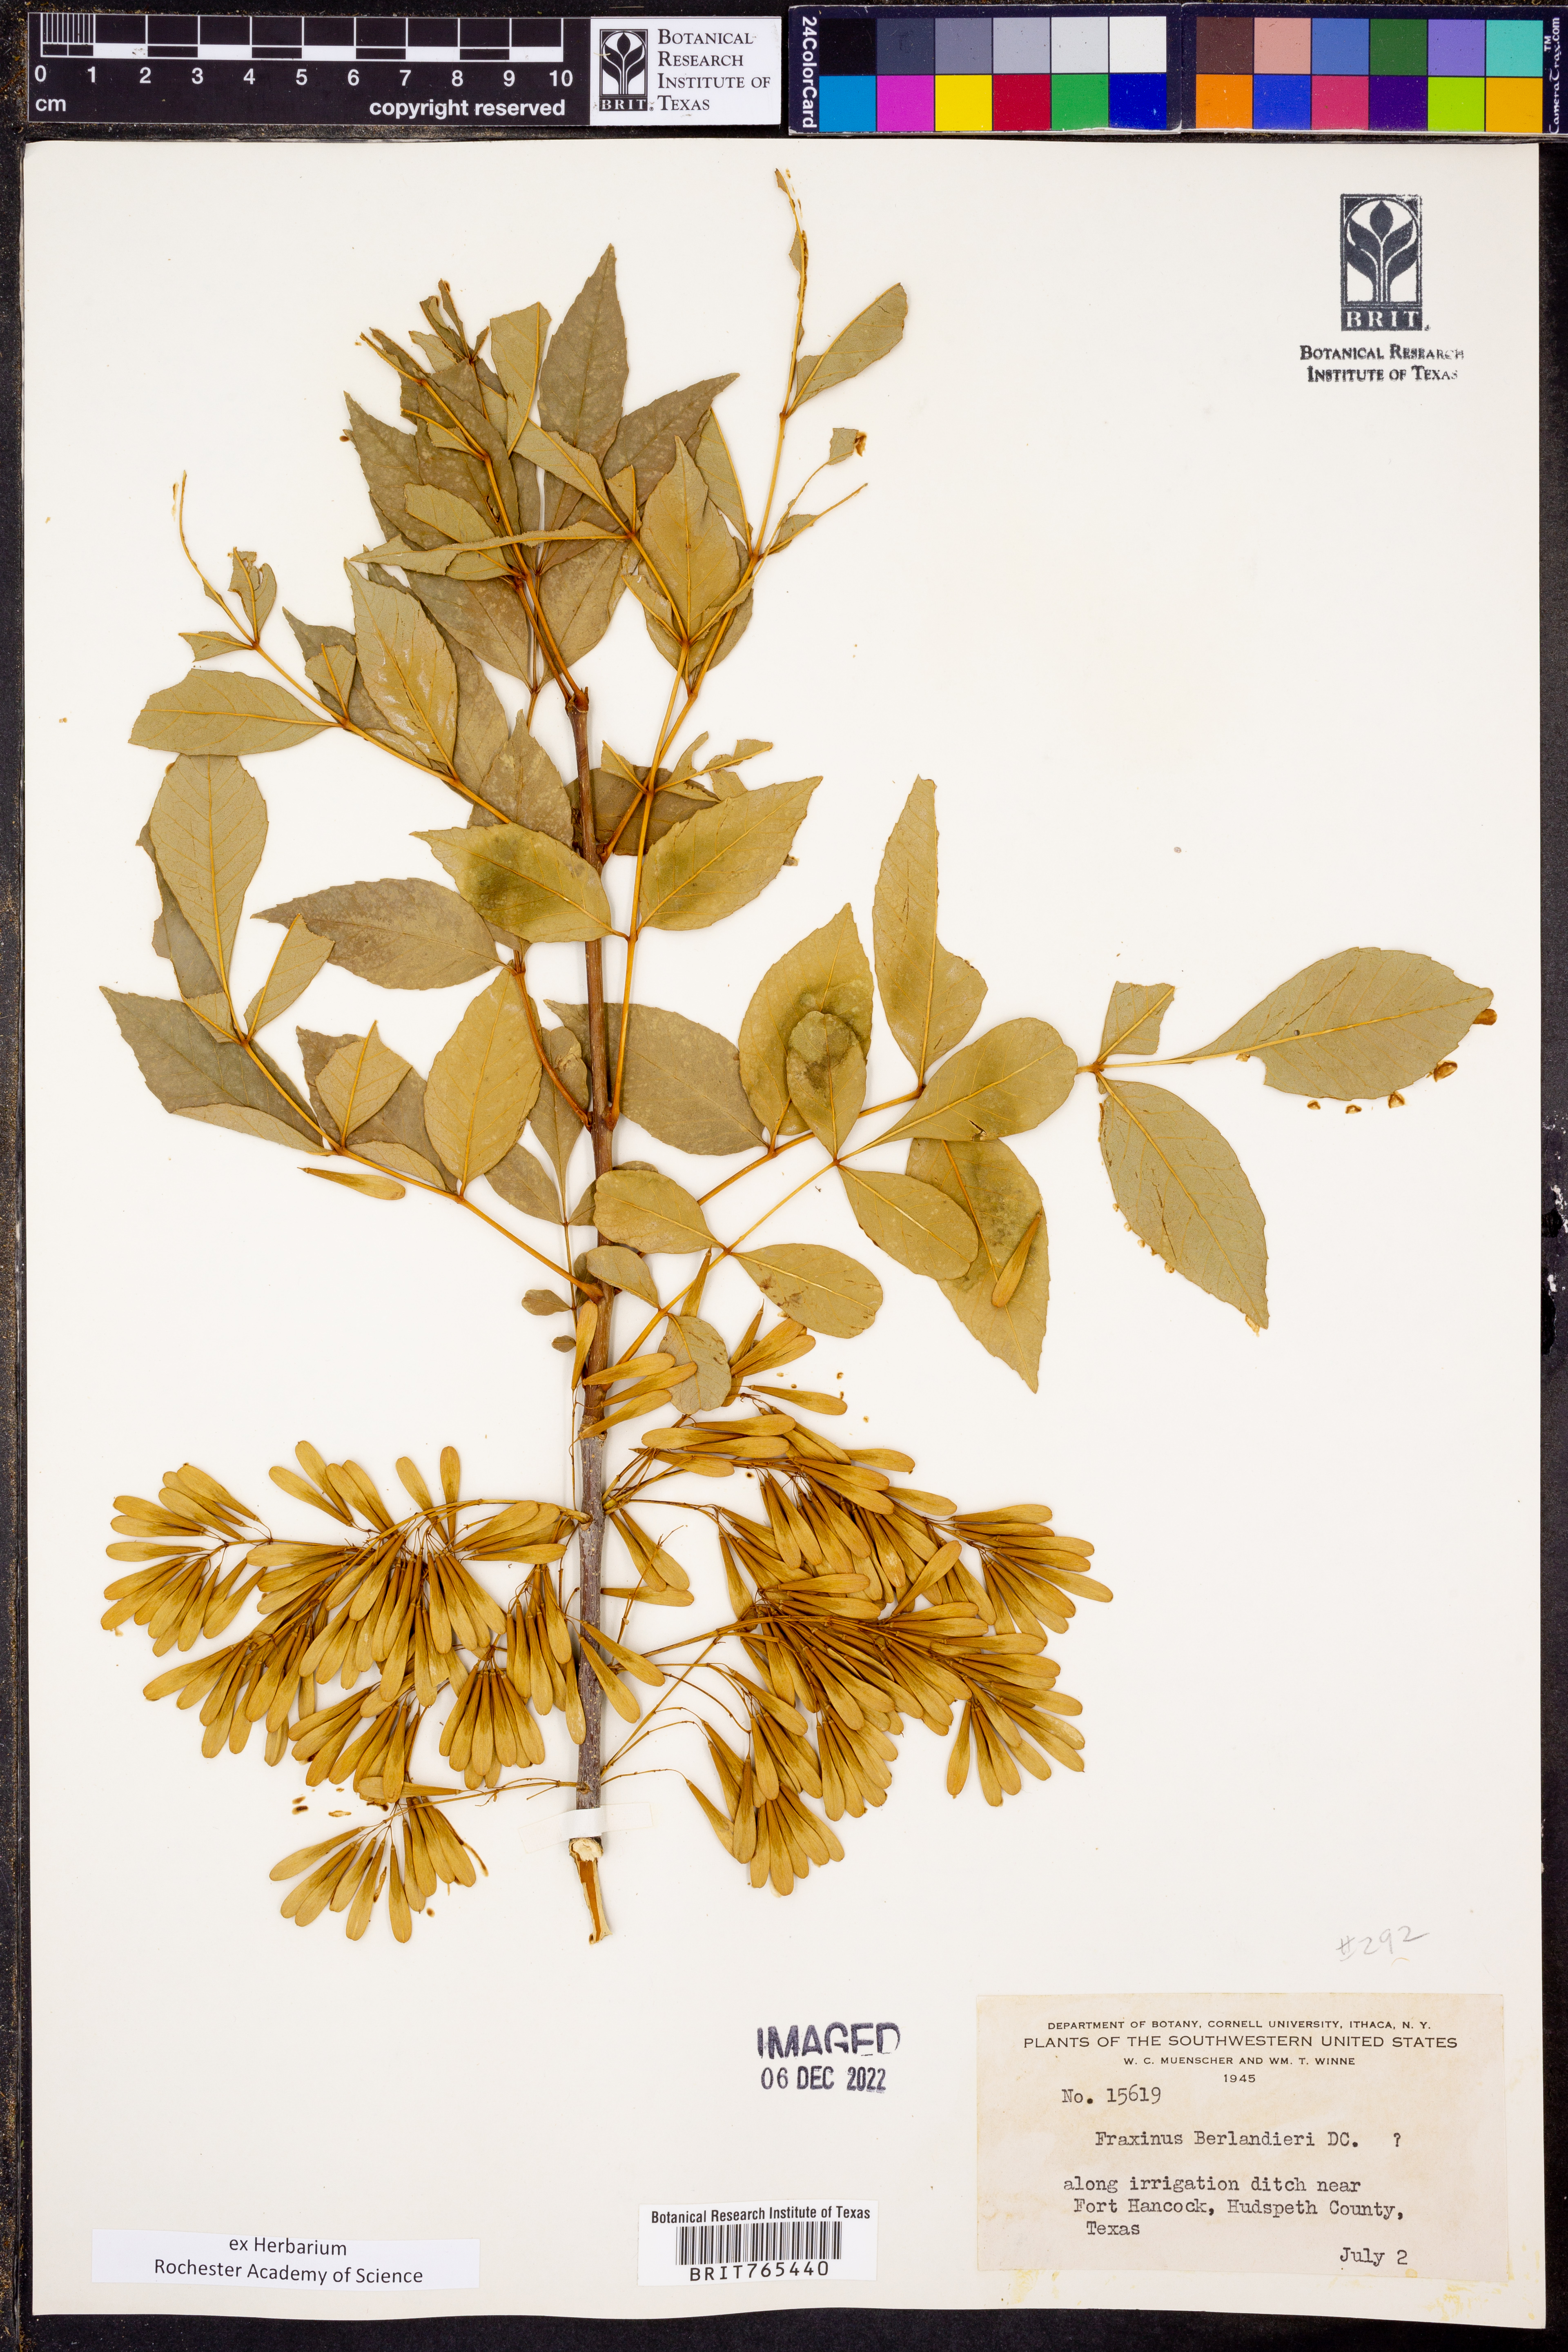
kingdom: Plantae
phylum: Tracheophyta
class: Magnoliopsida
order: Lamiales
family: Oleaceae
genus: Fraxinus
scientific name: Fraxinus berlandieriana
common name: Berlandier ash
